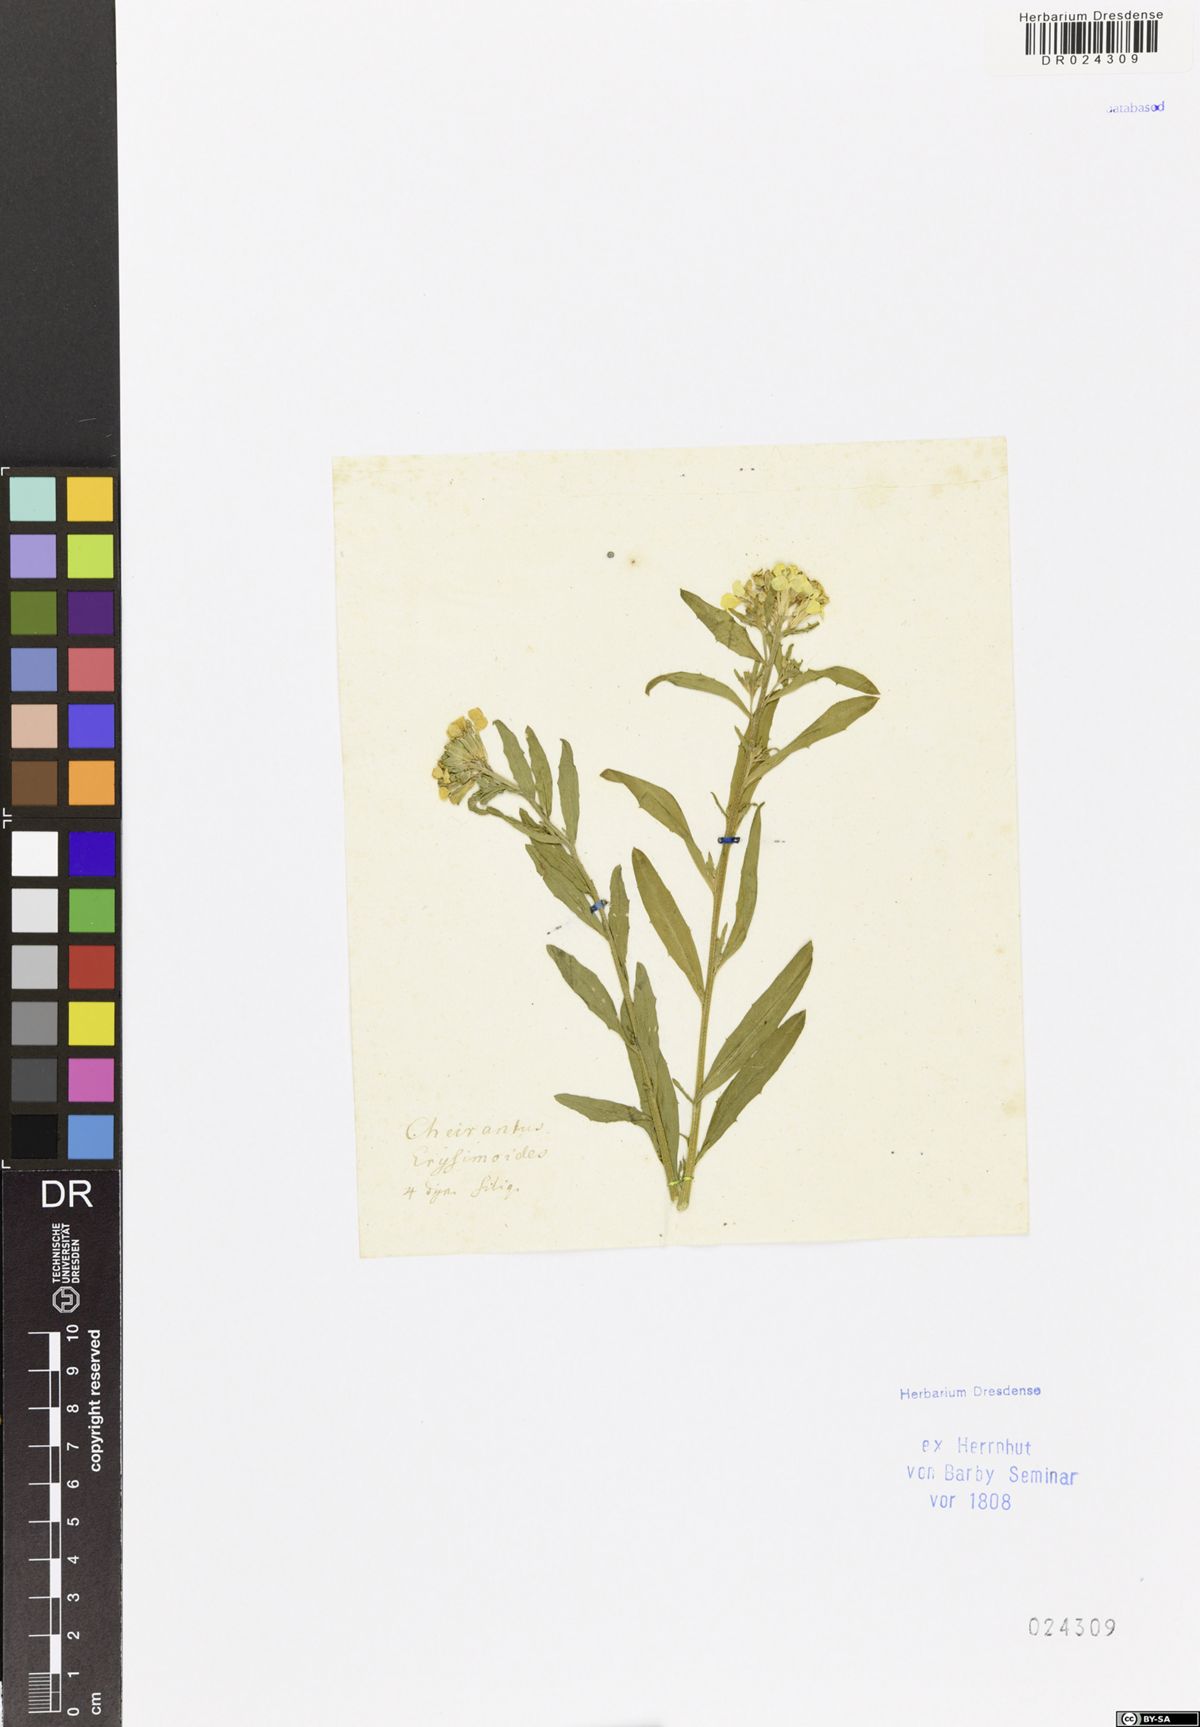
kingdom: Plantae
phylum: Tracheophyta
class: Magnoliopsida
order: Brassicales
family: Brassicaceae
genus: Erysimum
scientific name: Erysimum odoratum
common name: Smelly wallflower
